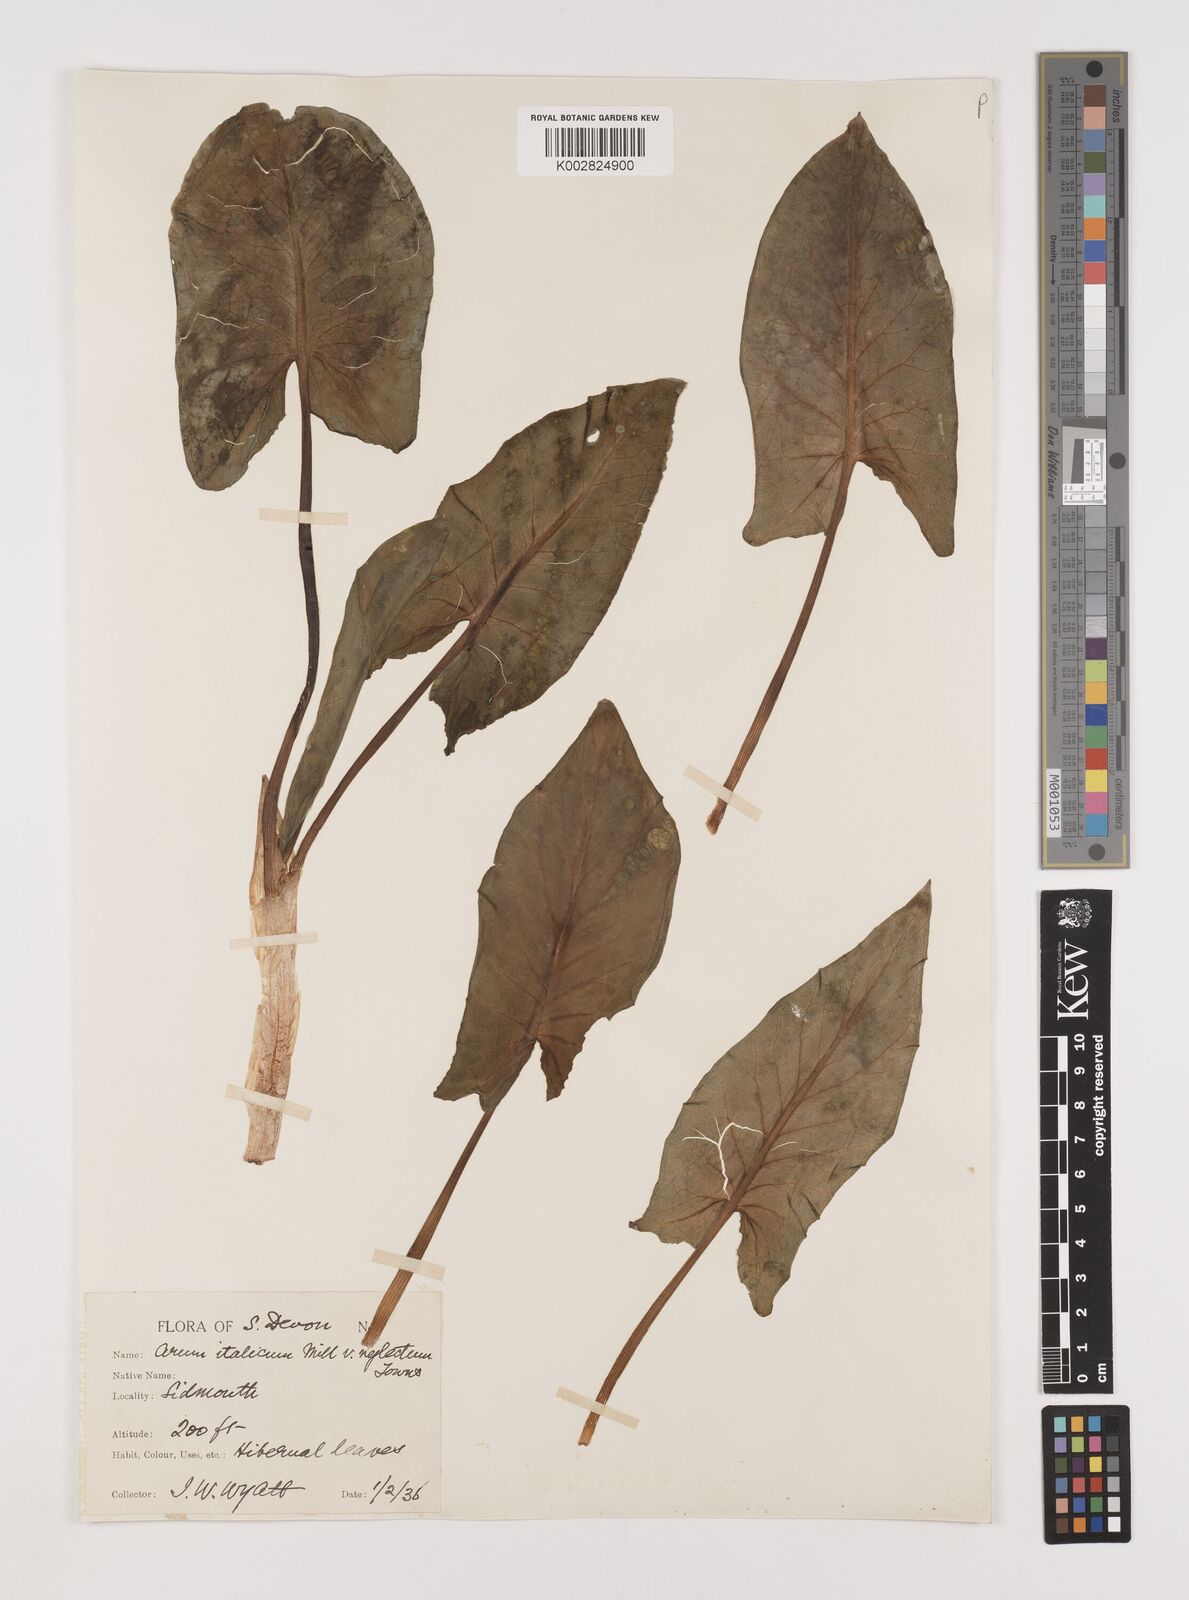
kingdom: Plantae
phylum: Tracheophyta
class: Liliopsida
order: Alismatales
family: Araceae
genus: Arum
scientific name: Arum italicum
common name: Italian lords-and-ladies
